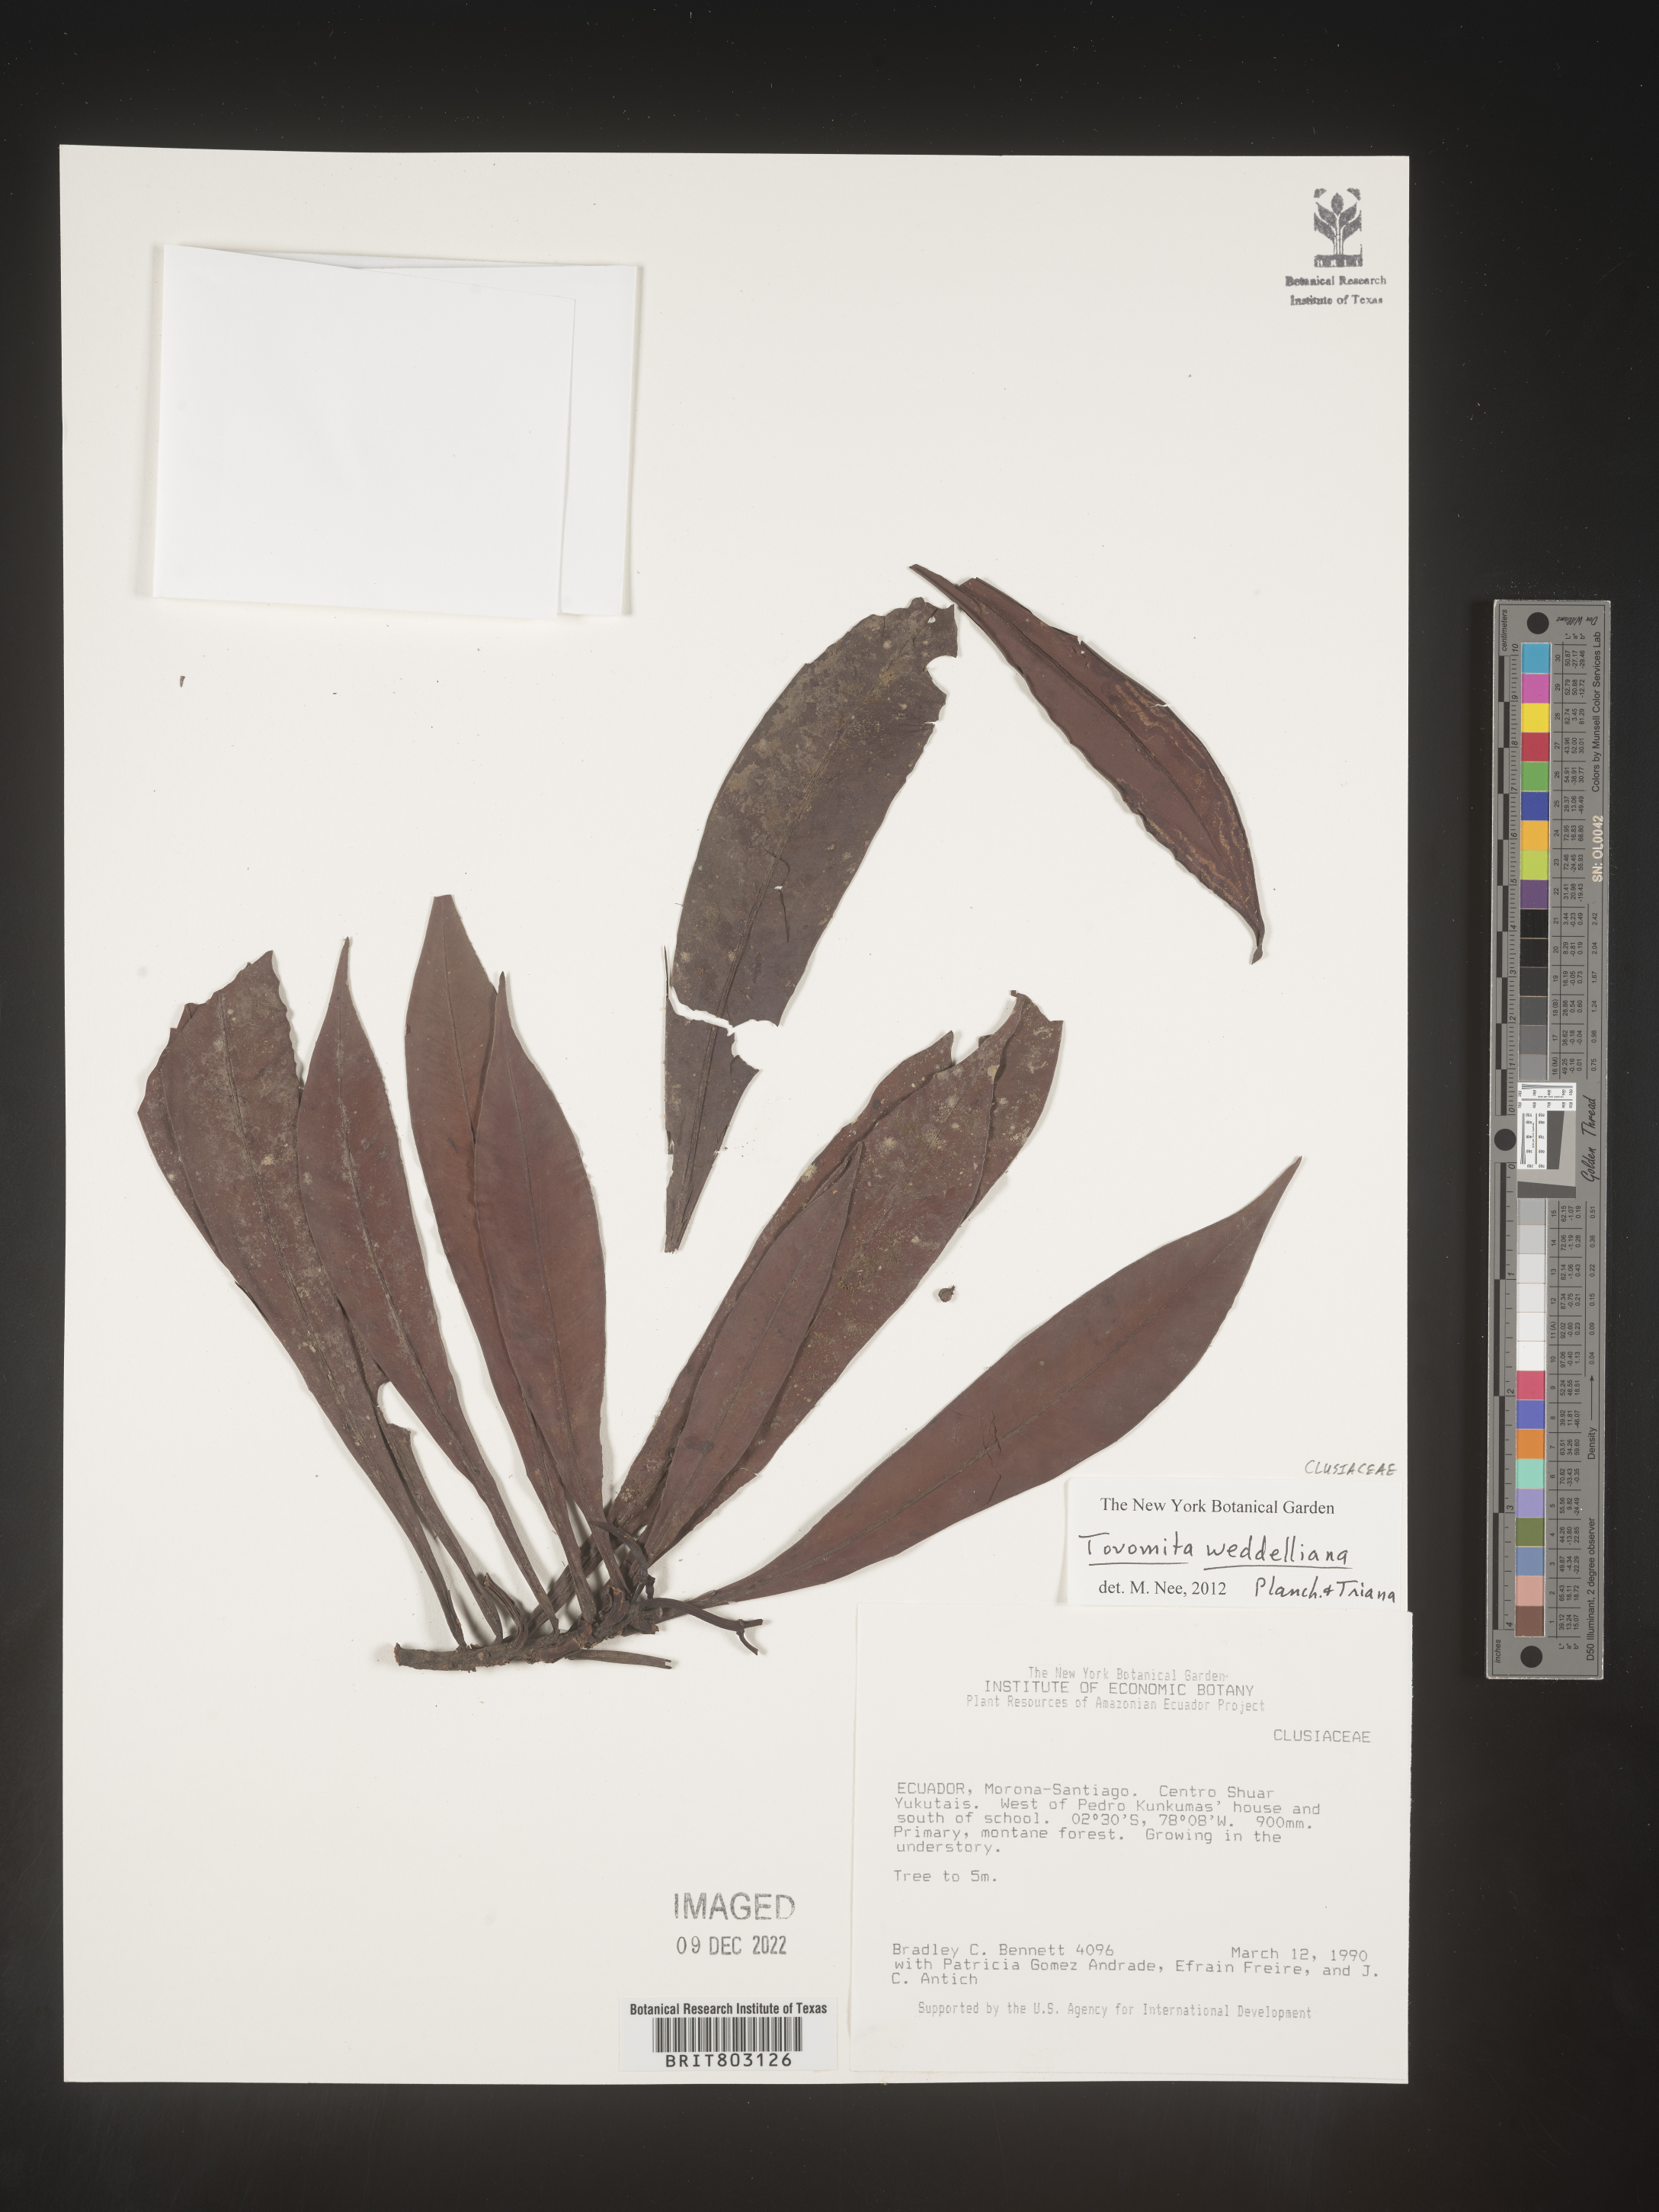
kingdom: Plantae
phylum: Tracheophyta
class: Magnoliopsida
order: Malpighiales
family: Clusiaceae
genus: Arawakia
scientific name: Arawakia weddelliana
